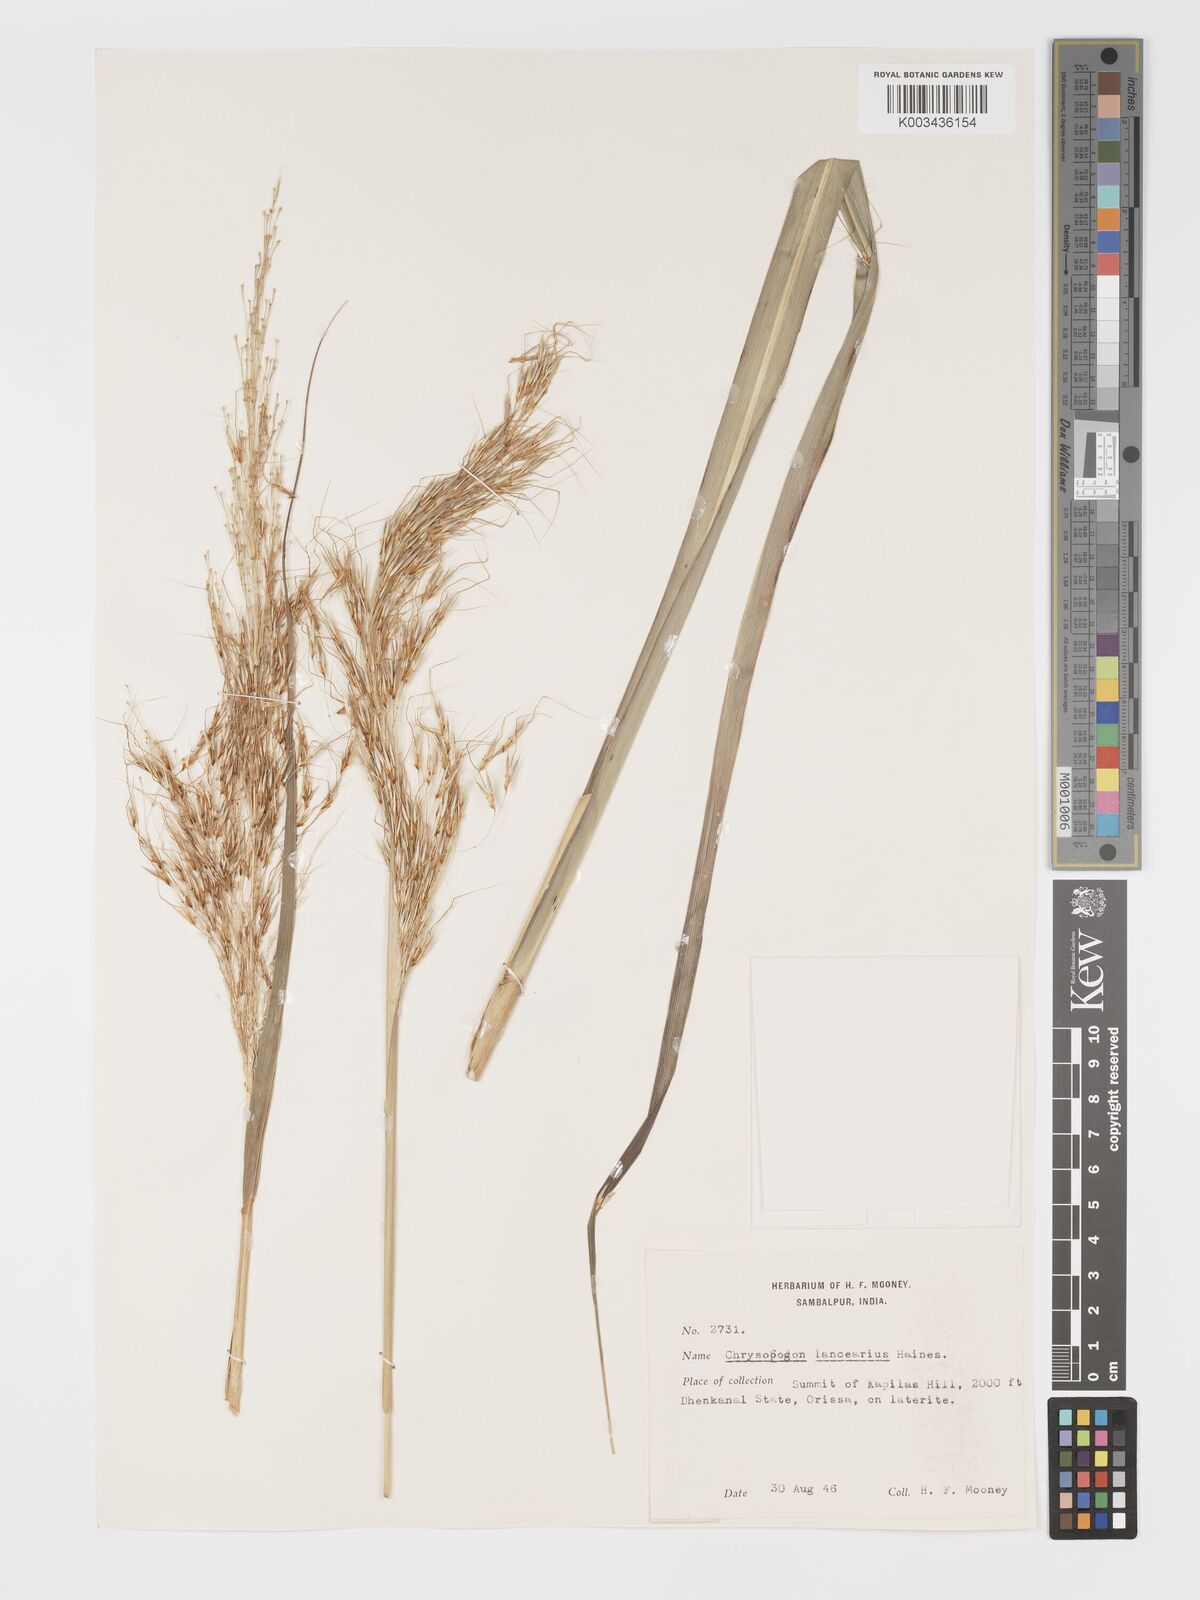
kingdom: Plantae
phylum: Tracheophyta
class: Liliopsida
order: Poales
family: Poaceae
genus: Chrysopogon
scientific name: Chrysopogon lancearius
